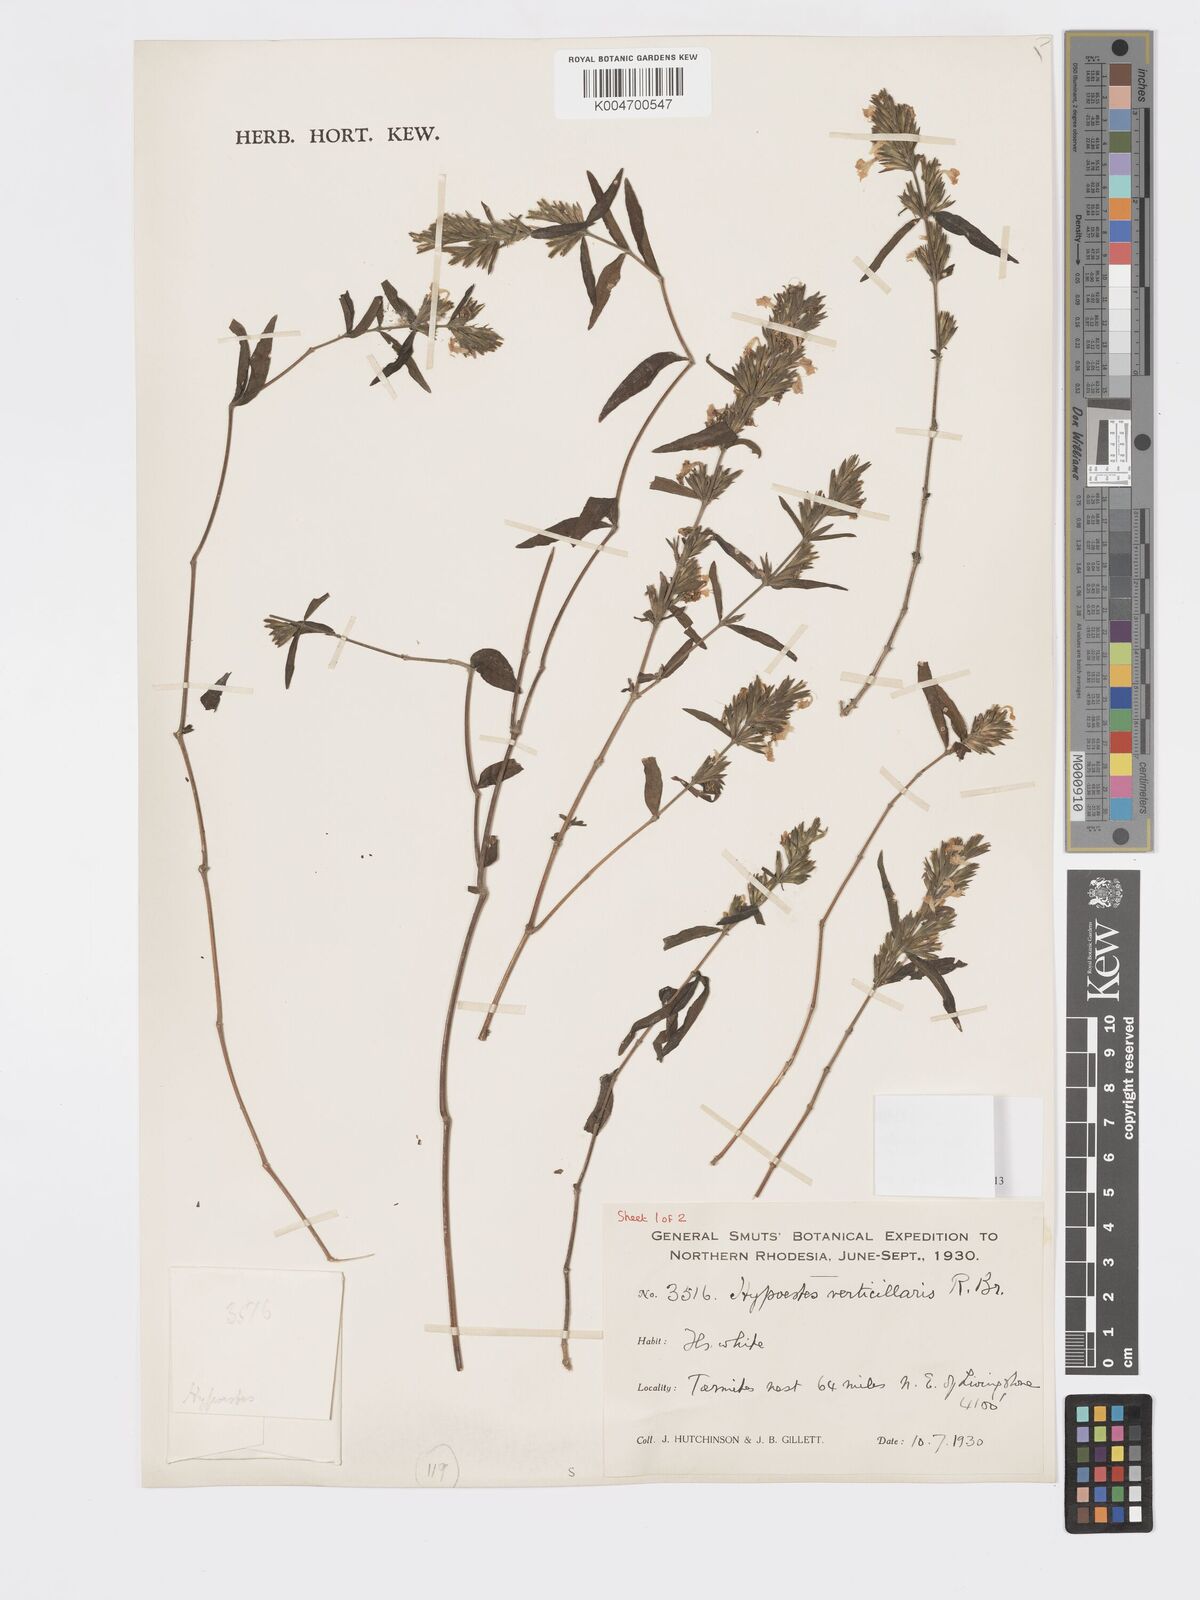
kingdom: Plantae
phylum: Tracheophyta
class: Magnoliopsida
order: Lamiales
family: Acanthaceae
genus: Hypoestes
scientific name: Hypoestes forskaolii
